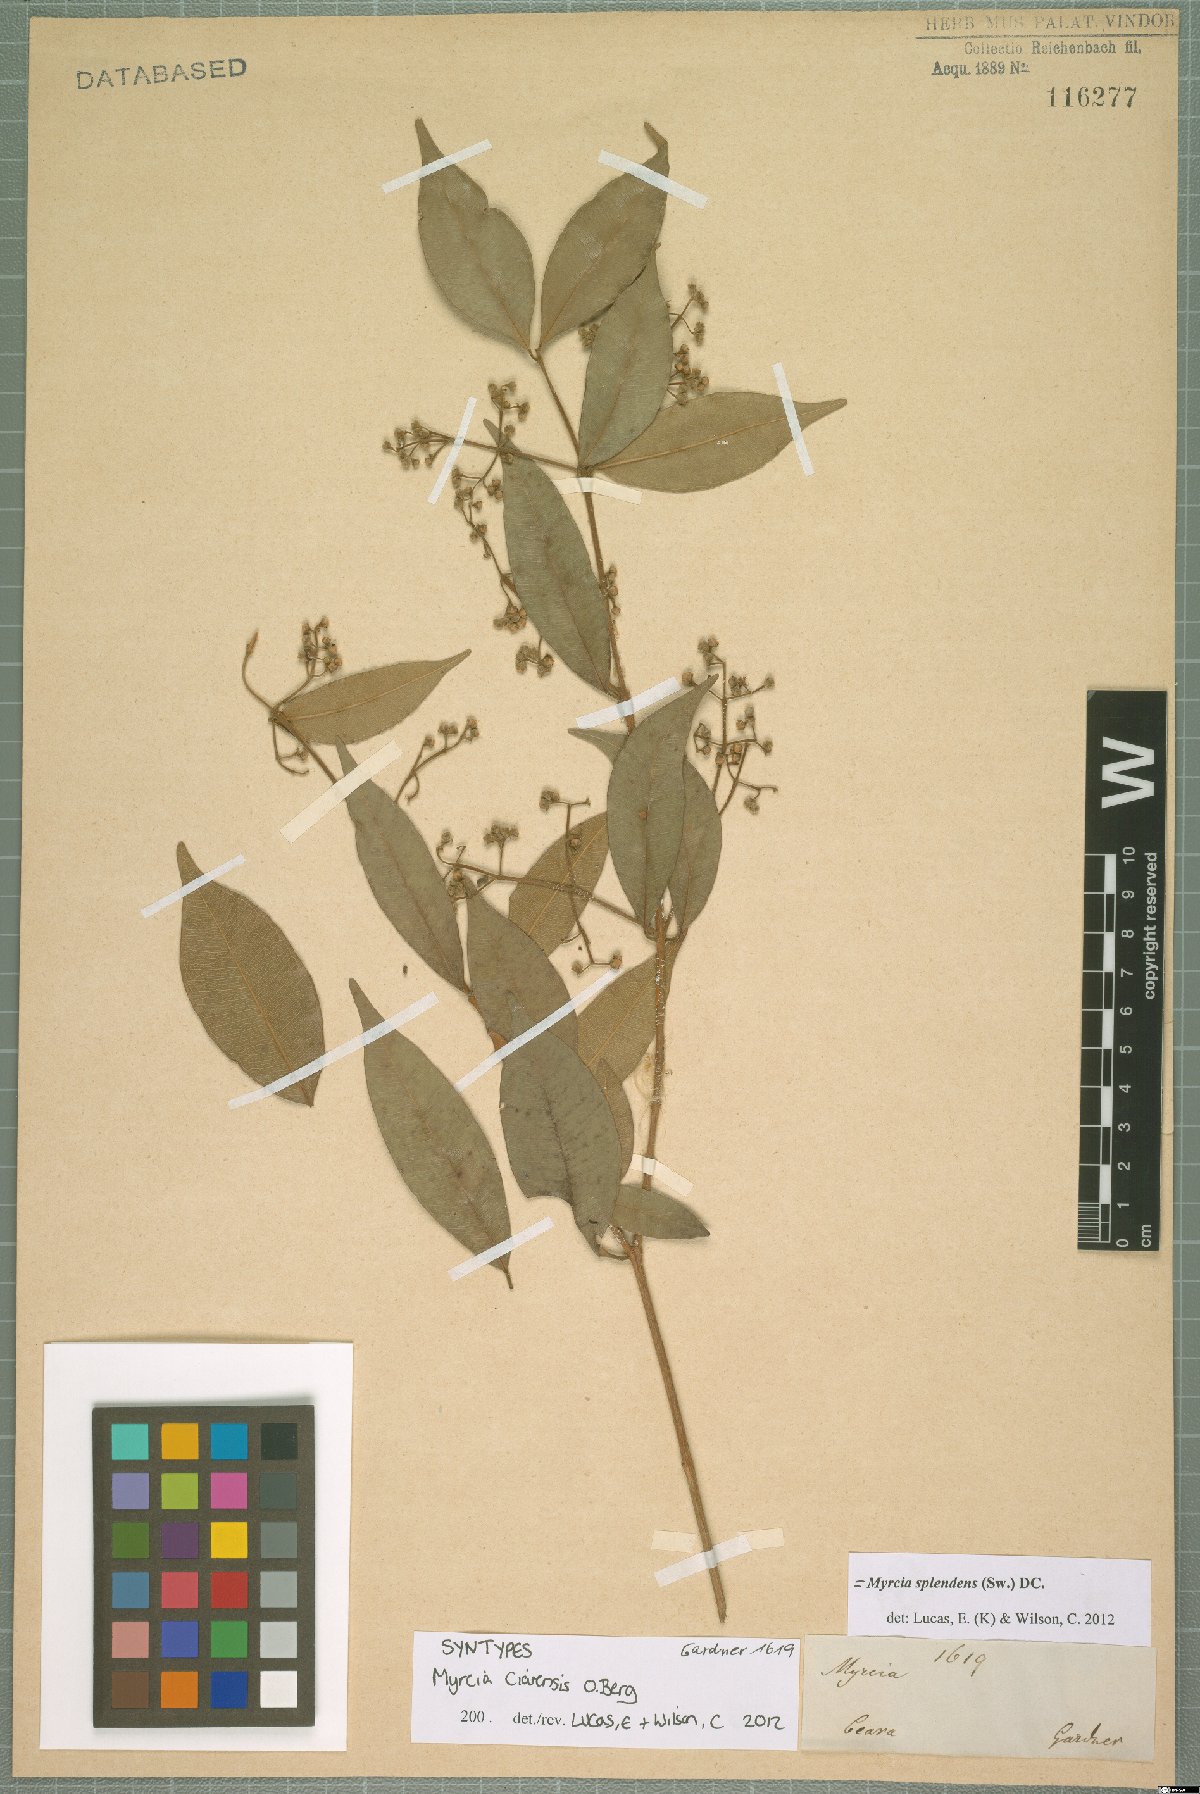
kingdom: Plantae
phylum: Tracheophyta
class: Magnoliopsida
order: Myrtales
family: Myrtaceae
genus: Myrcia
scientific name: Myrcia splendens
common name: Surinam cherry
